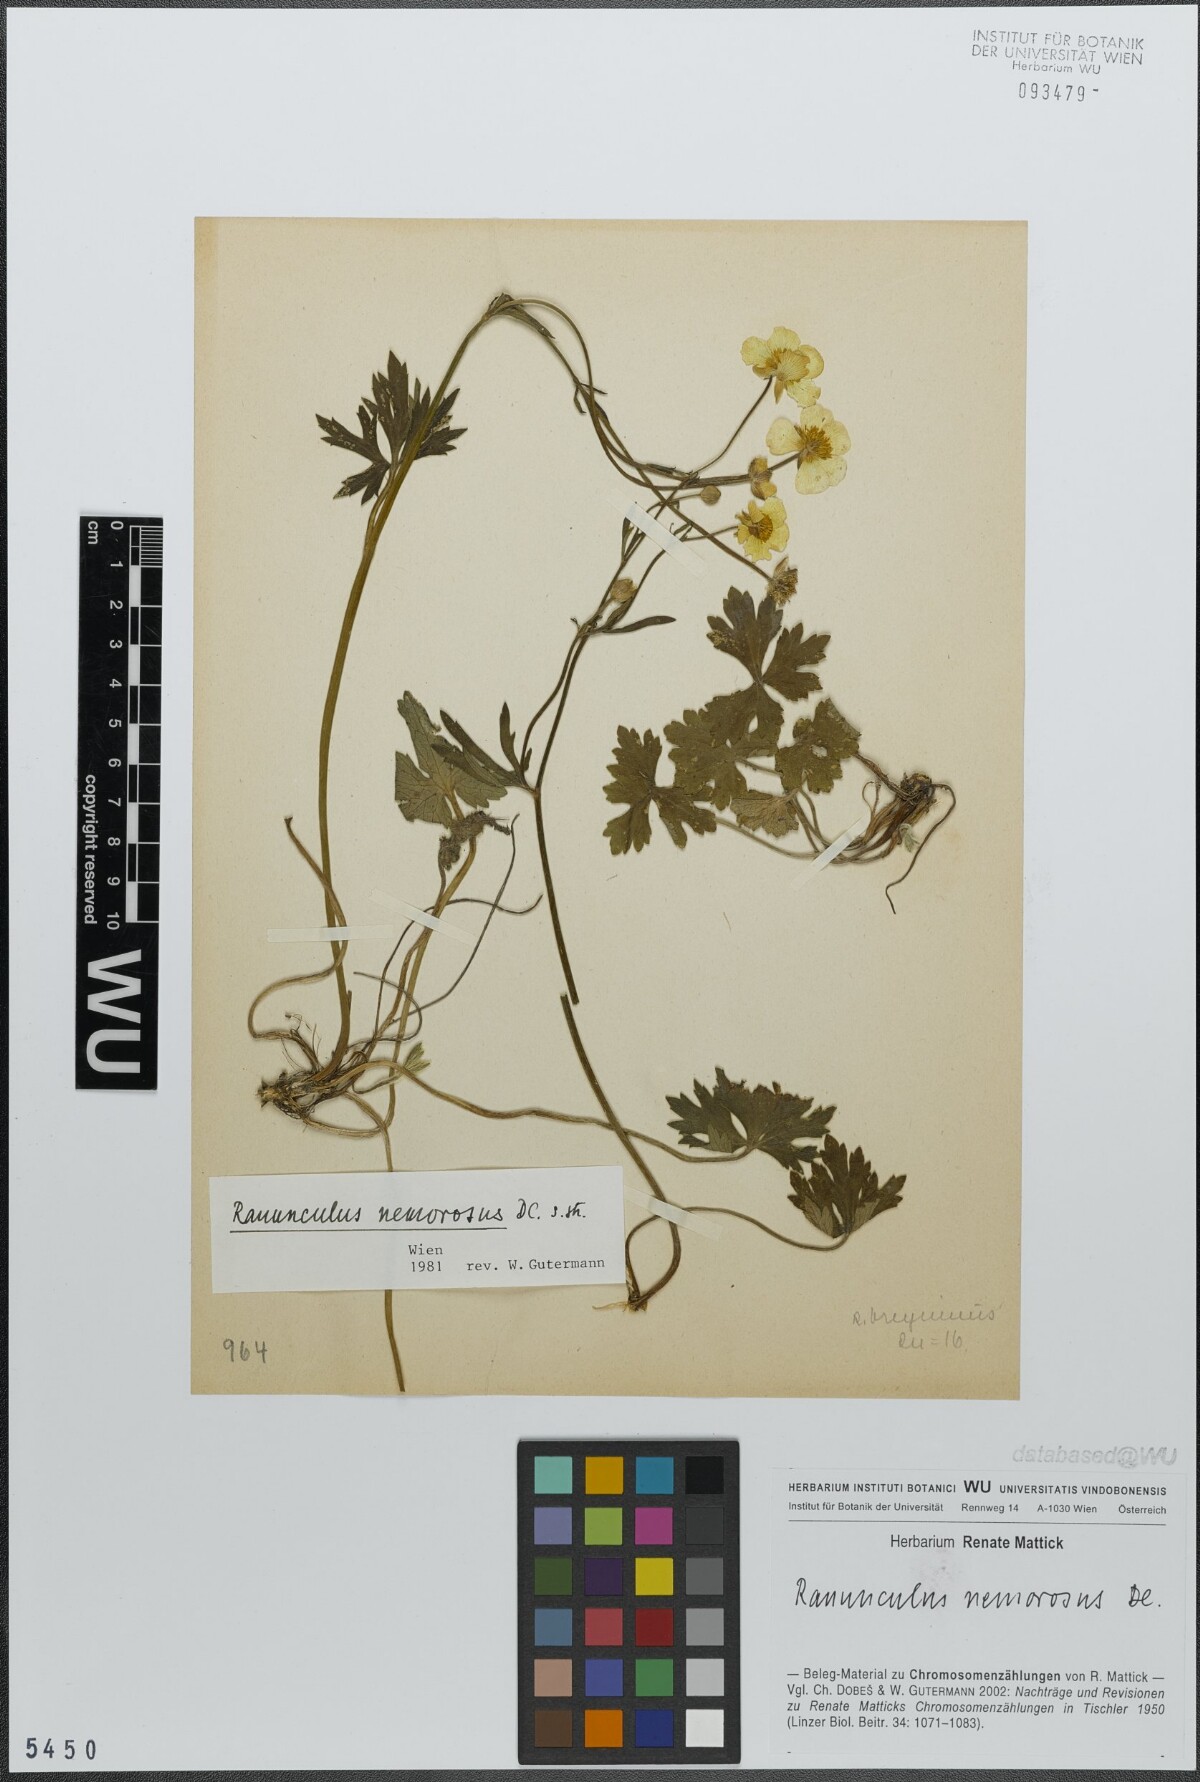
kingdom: Plantae
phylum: Tracheophyta
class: Magnoliopsida
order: Ranunculales
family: Ranunculaceae
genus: Ranunculus
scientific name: Ranunculus polyanthemos
